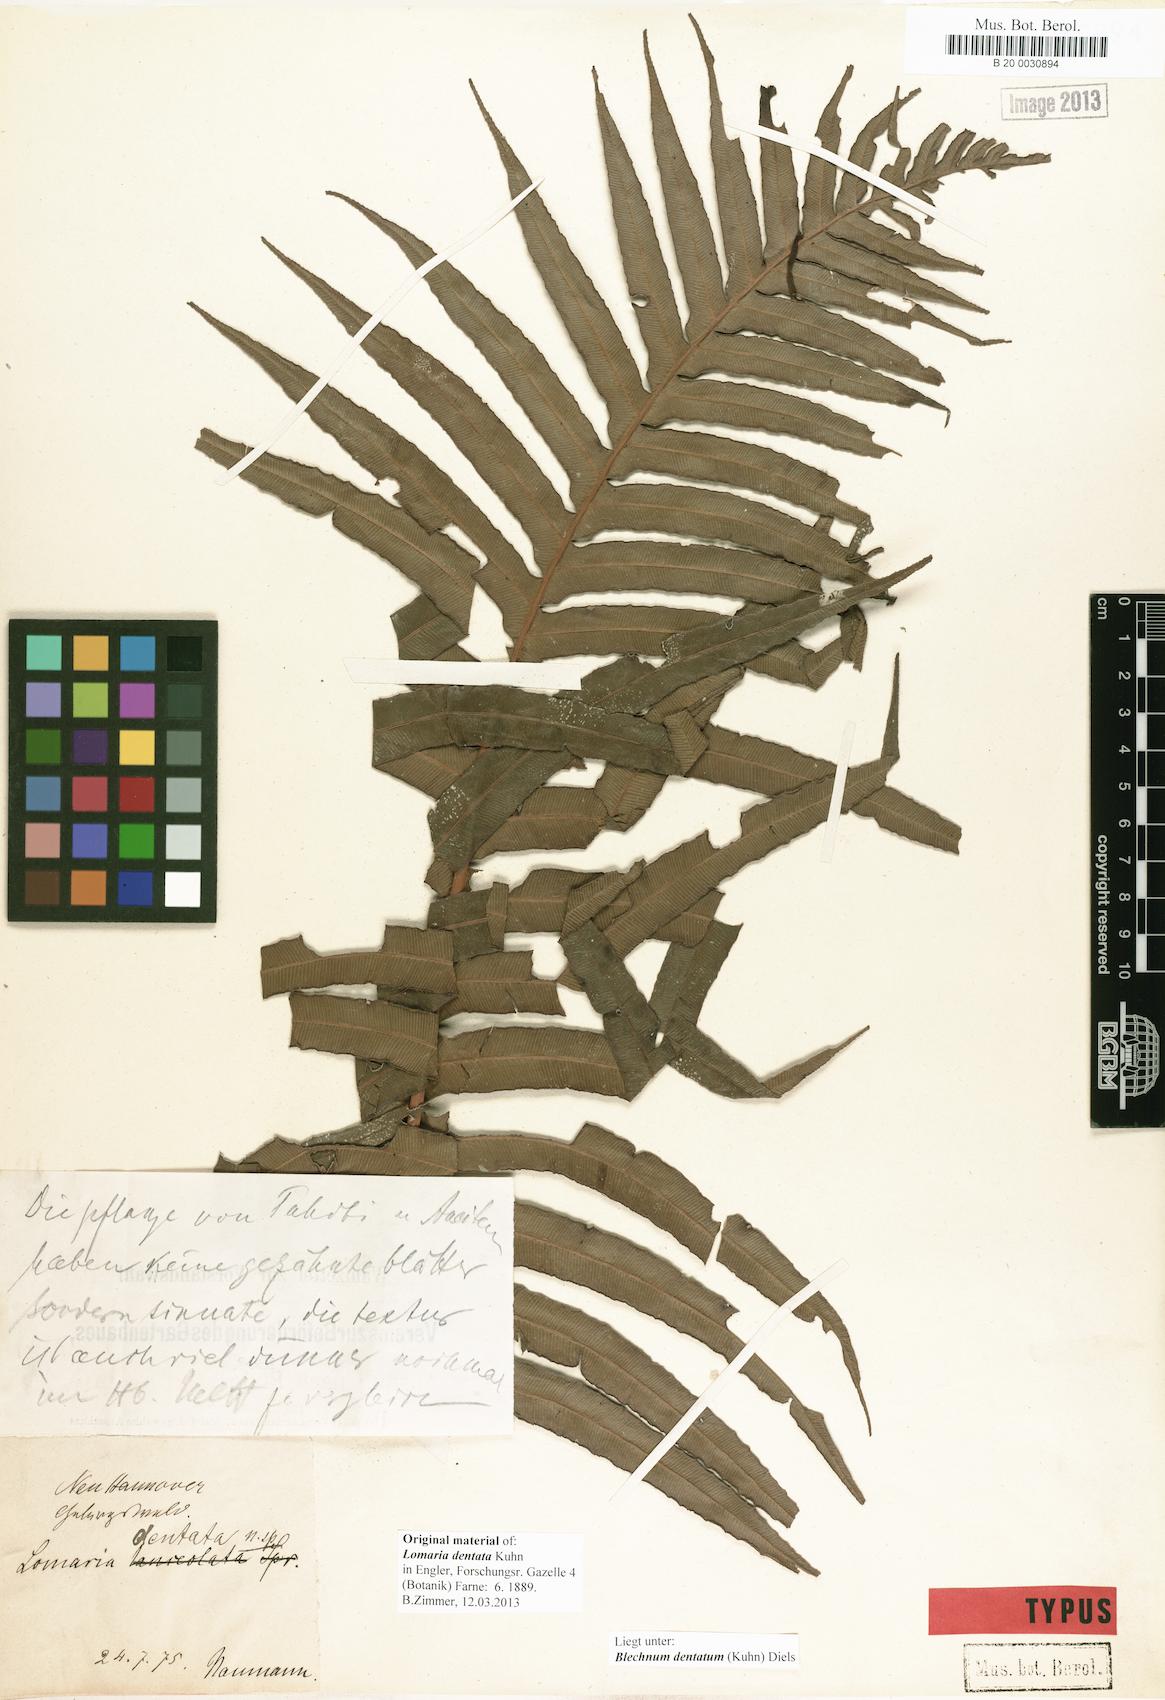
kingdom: Plantae
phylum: Tracheophyta
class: Polypodiopsida
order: Polypodiales
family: Blechnaceae
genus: Oceaniopteris
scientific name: Oceaniopteris vittata
